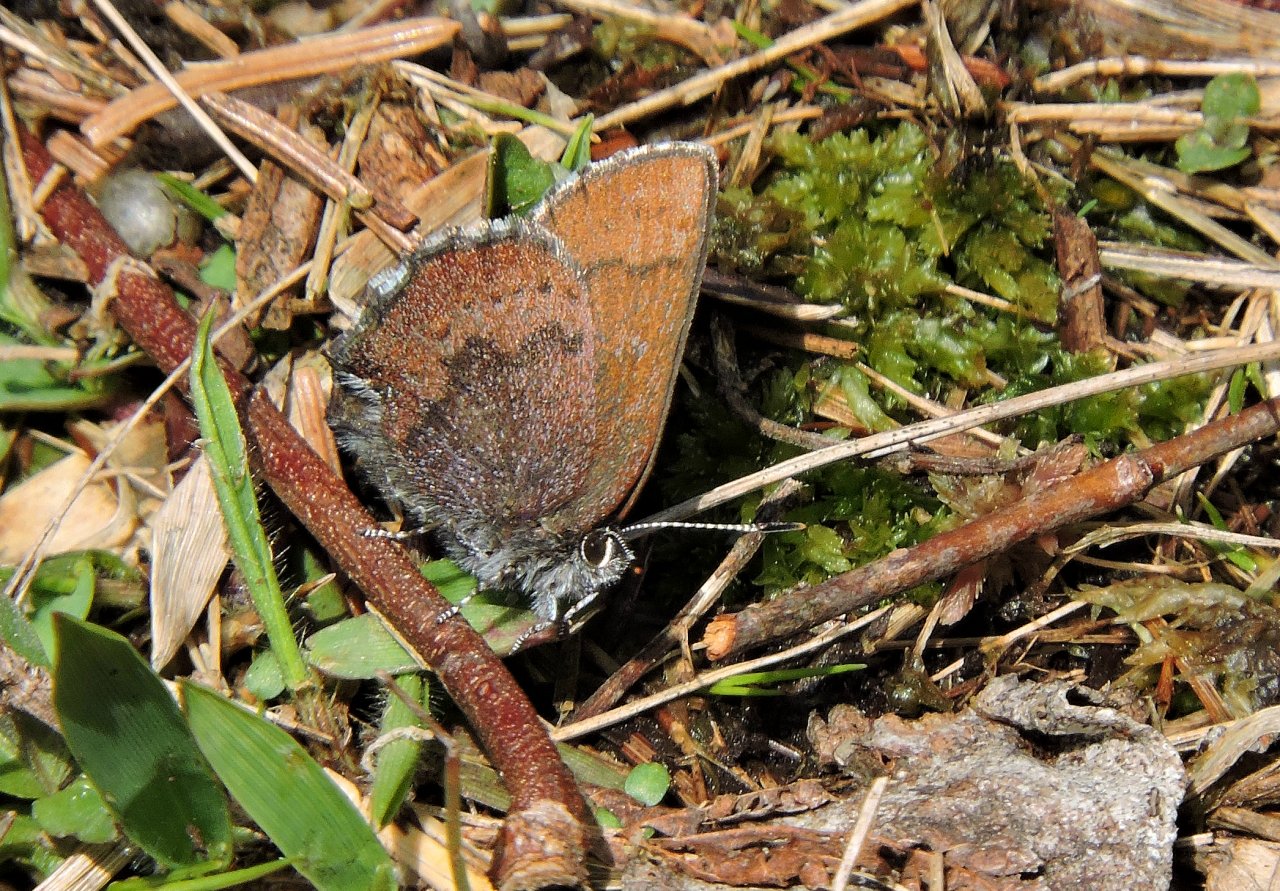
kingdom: Animalia
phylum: Arthropoda
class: Insecta
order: Lepidoptera
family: Lycaenidae
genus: Incisalia
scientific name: Incisalia irioides
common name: Brown Elfin
